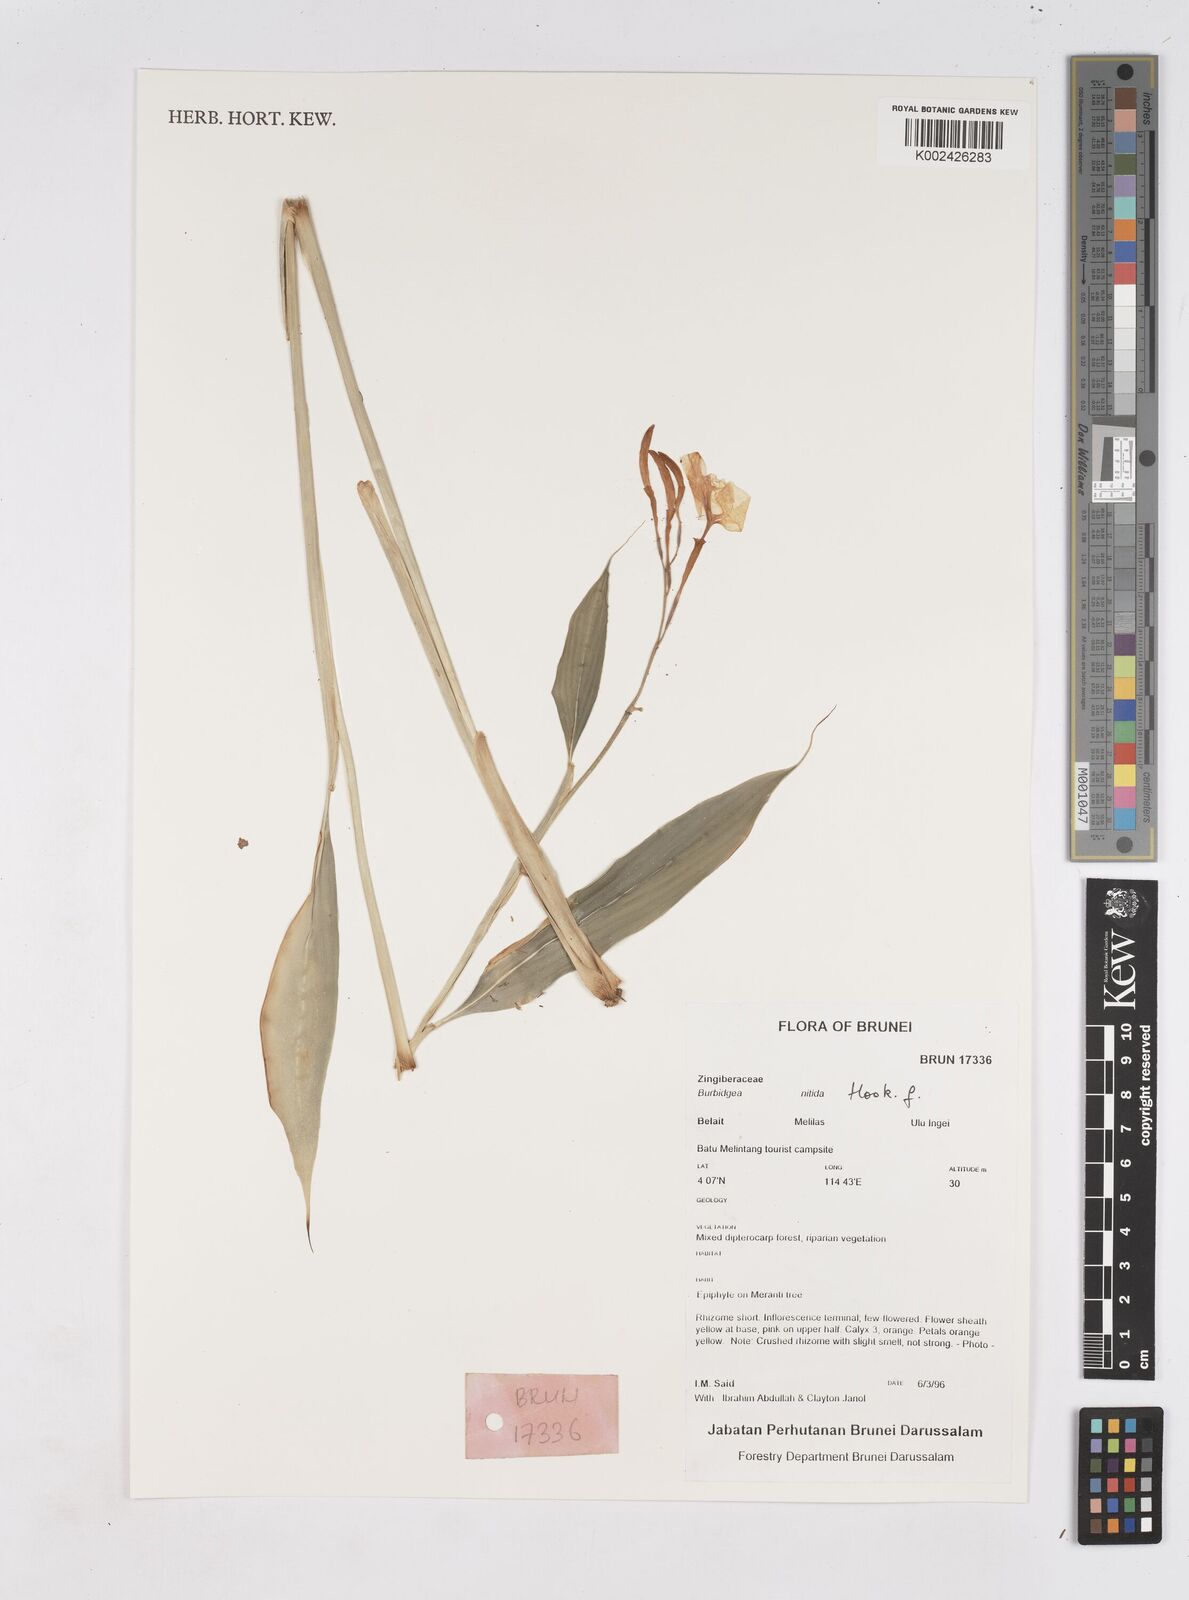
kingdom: Plantae
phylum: Tracheophyta
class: Liliopsida
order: Zingiberales
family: Zingiberaceae
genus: Burbidgea
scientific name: Burbidgea nitida
